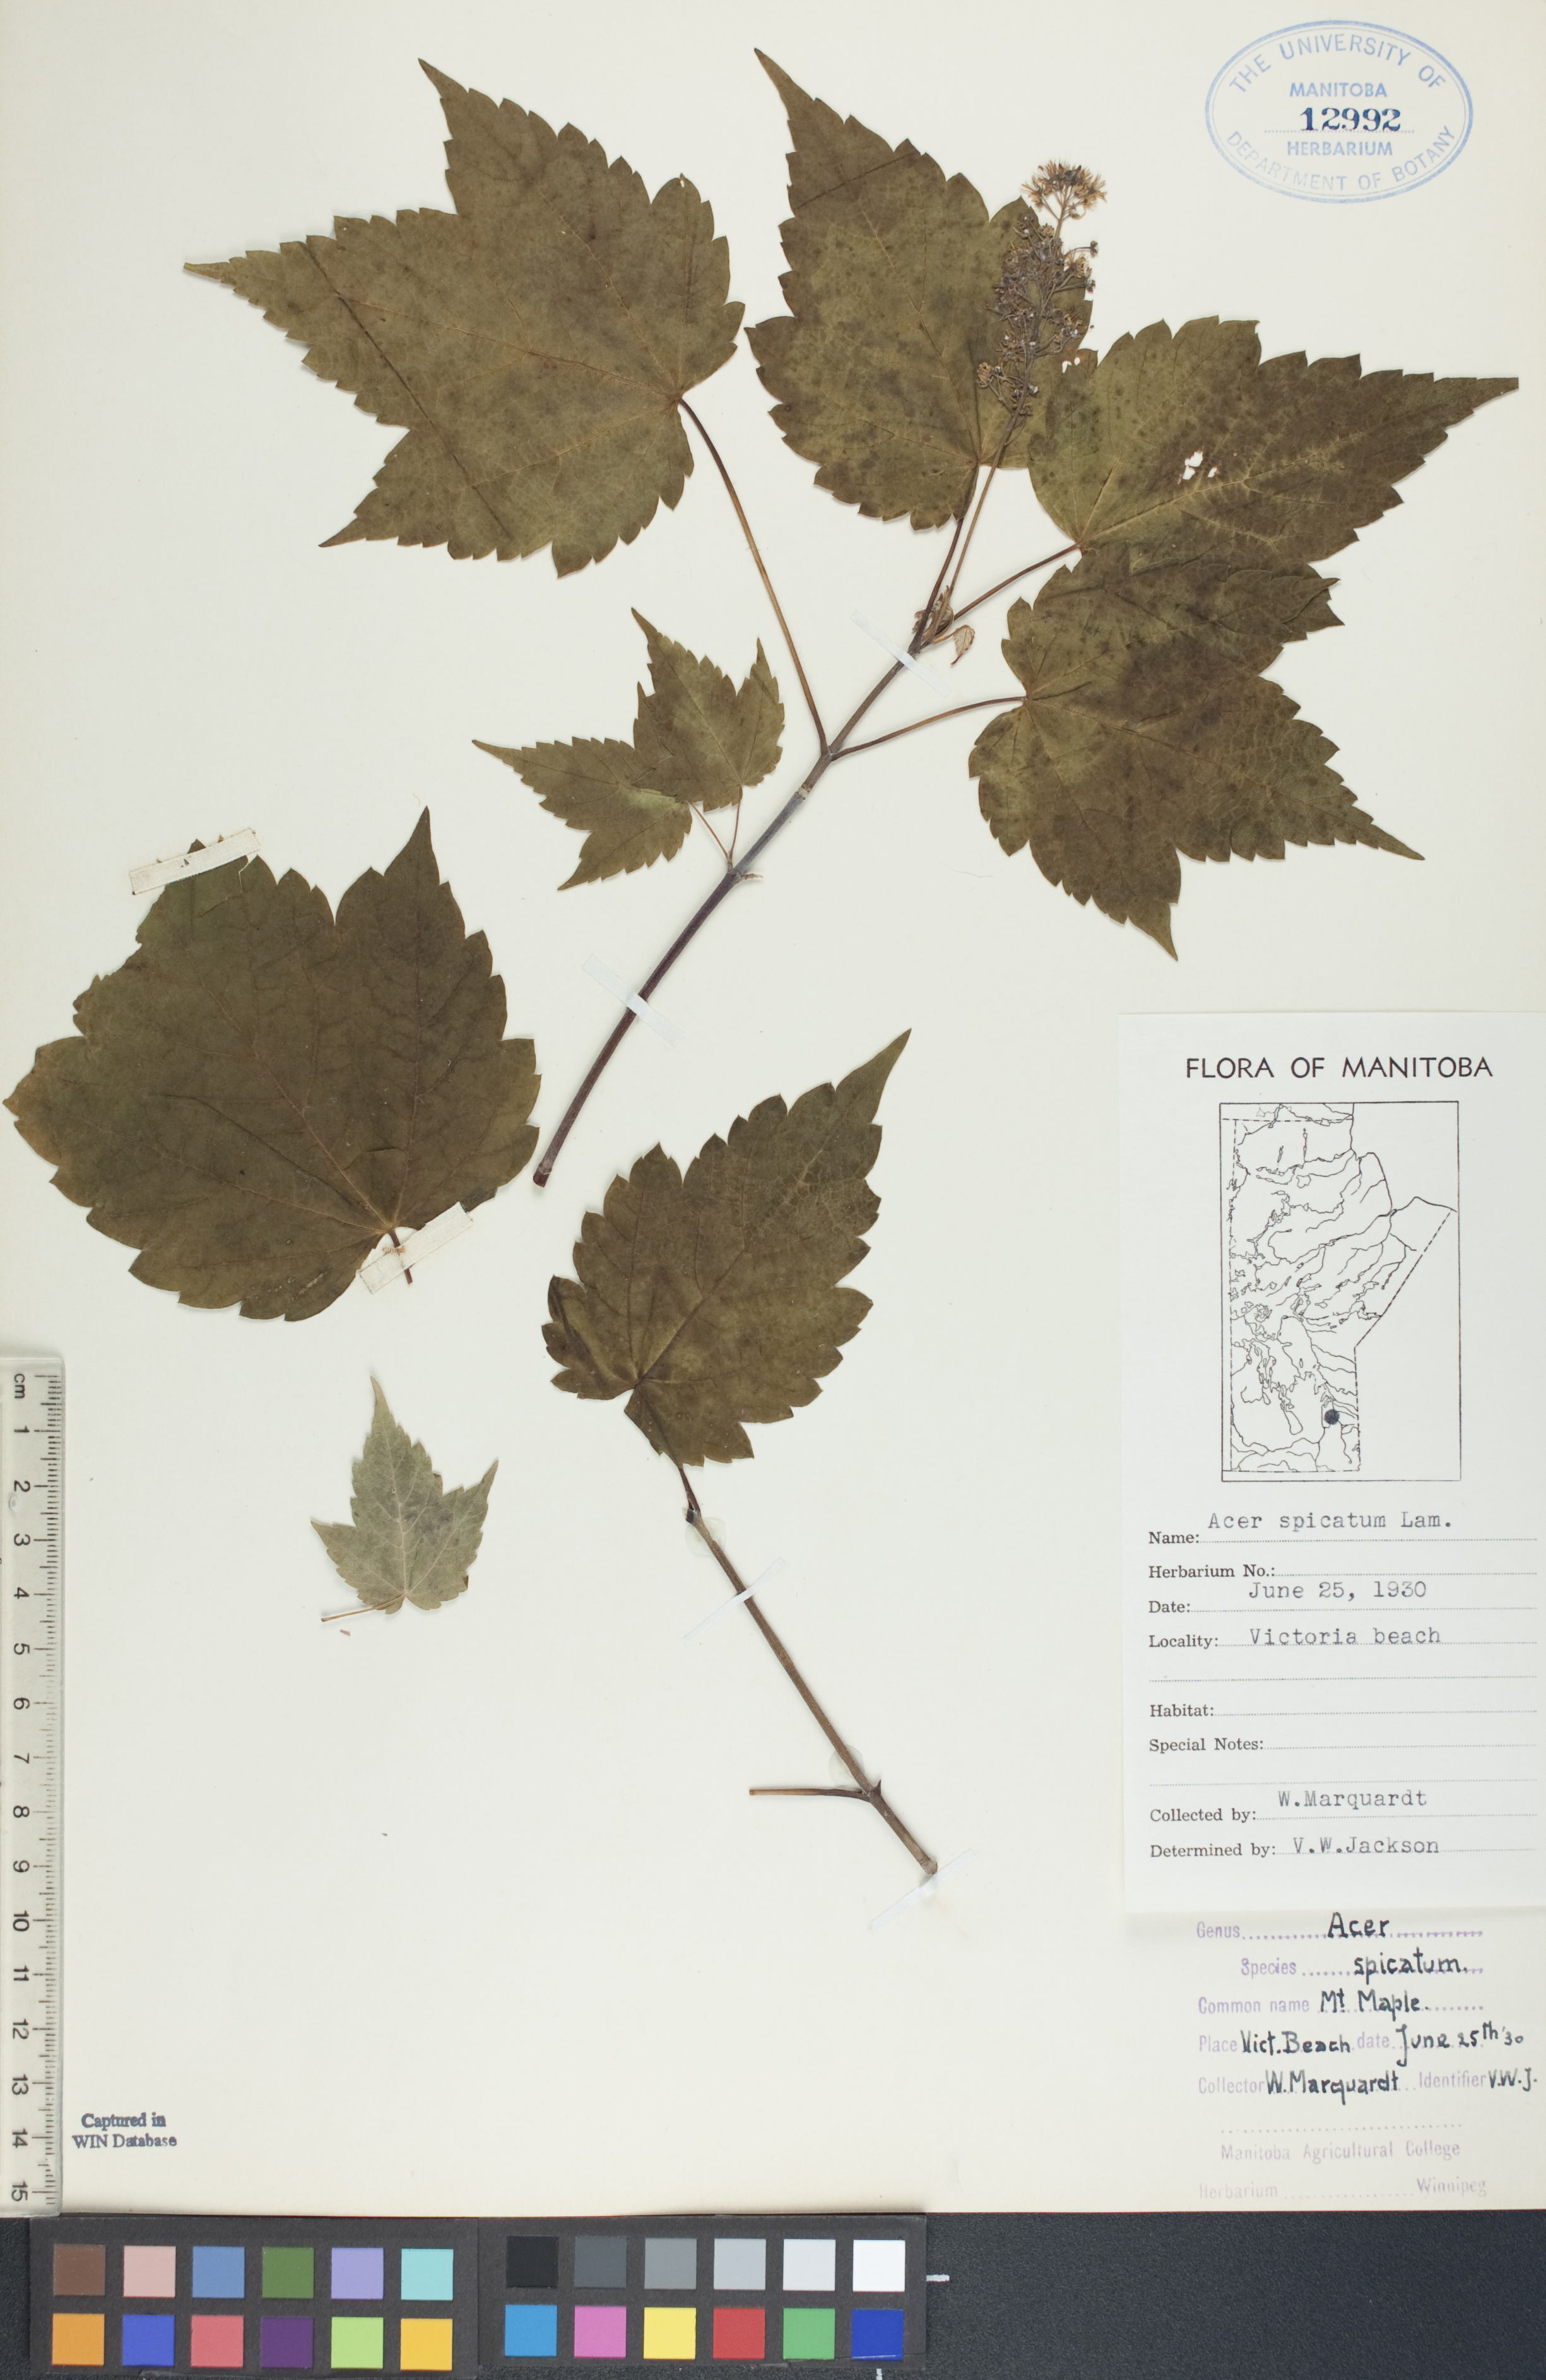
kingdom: Plantae
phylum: Tracheophyta
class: Magnoliopsida
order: Sapindales
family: Sapindaceae
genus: Acer
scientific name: Acer spicatum
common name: Mountain maple
